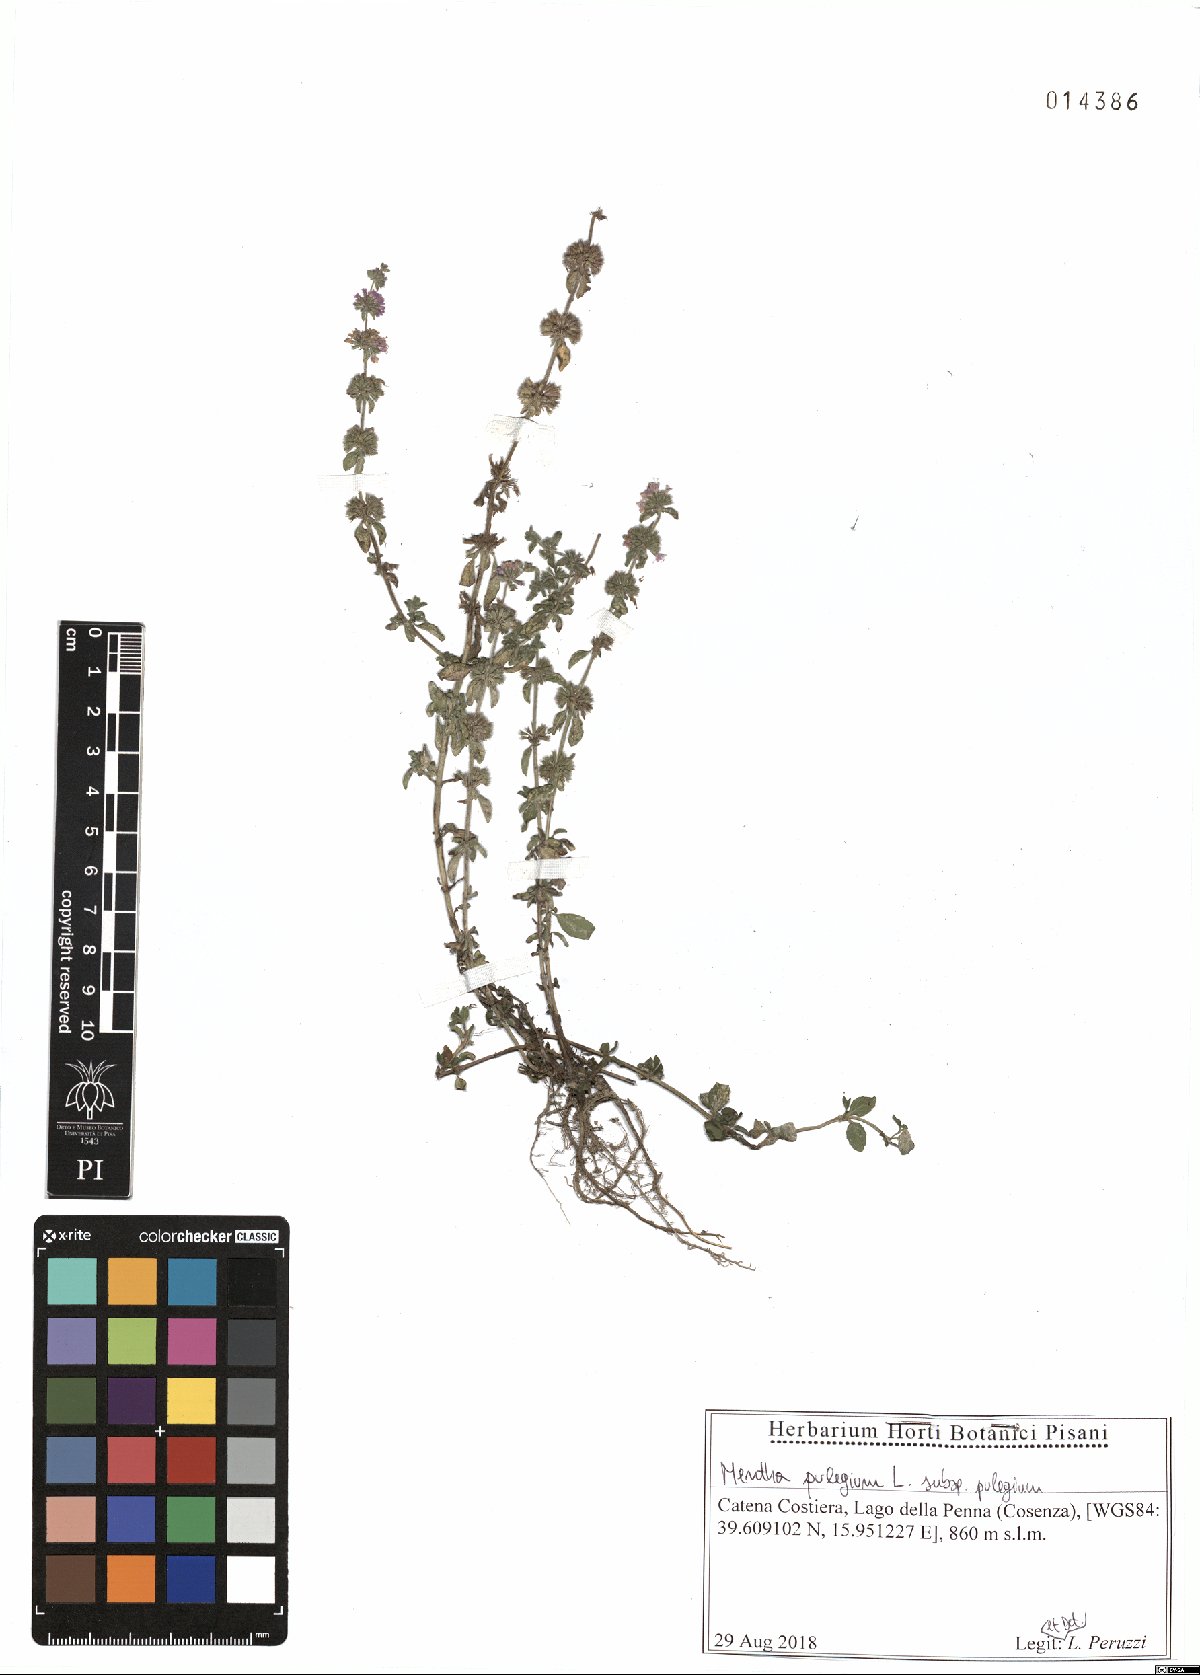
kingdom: Plantae
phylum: Tracheophyta
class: Magnoliopsida
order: Lamiales
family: Lamiaceae
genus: Mentha
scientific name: Mentha pulegium
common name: Pennyroyal
